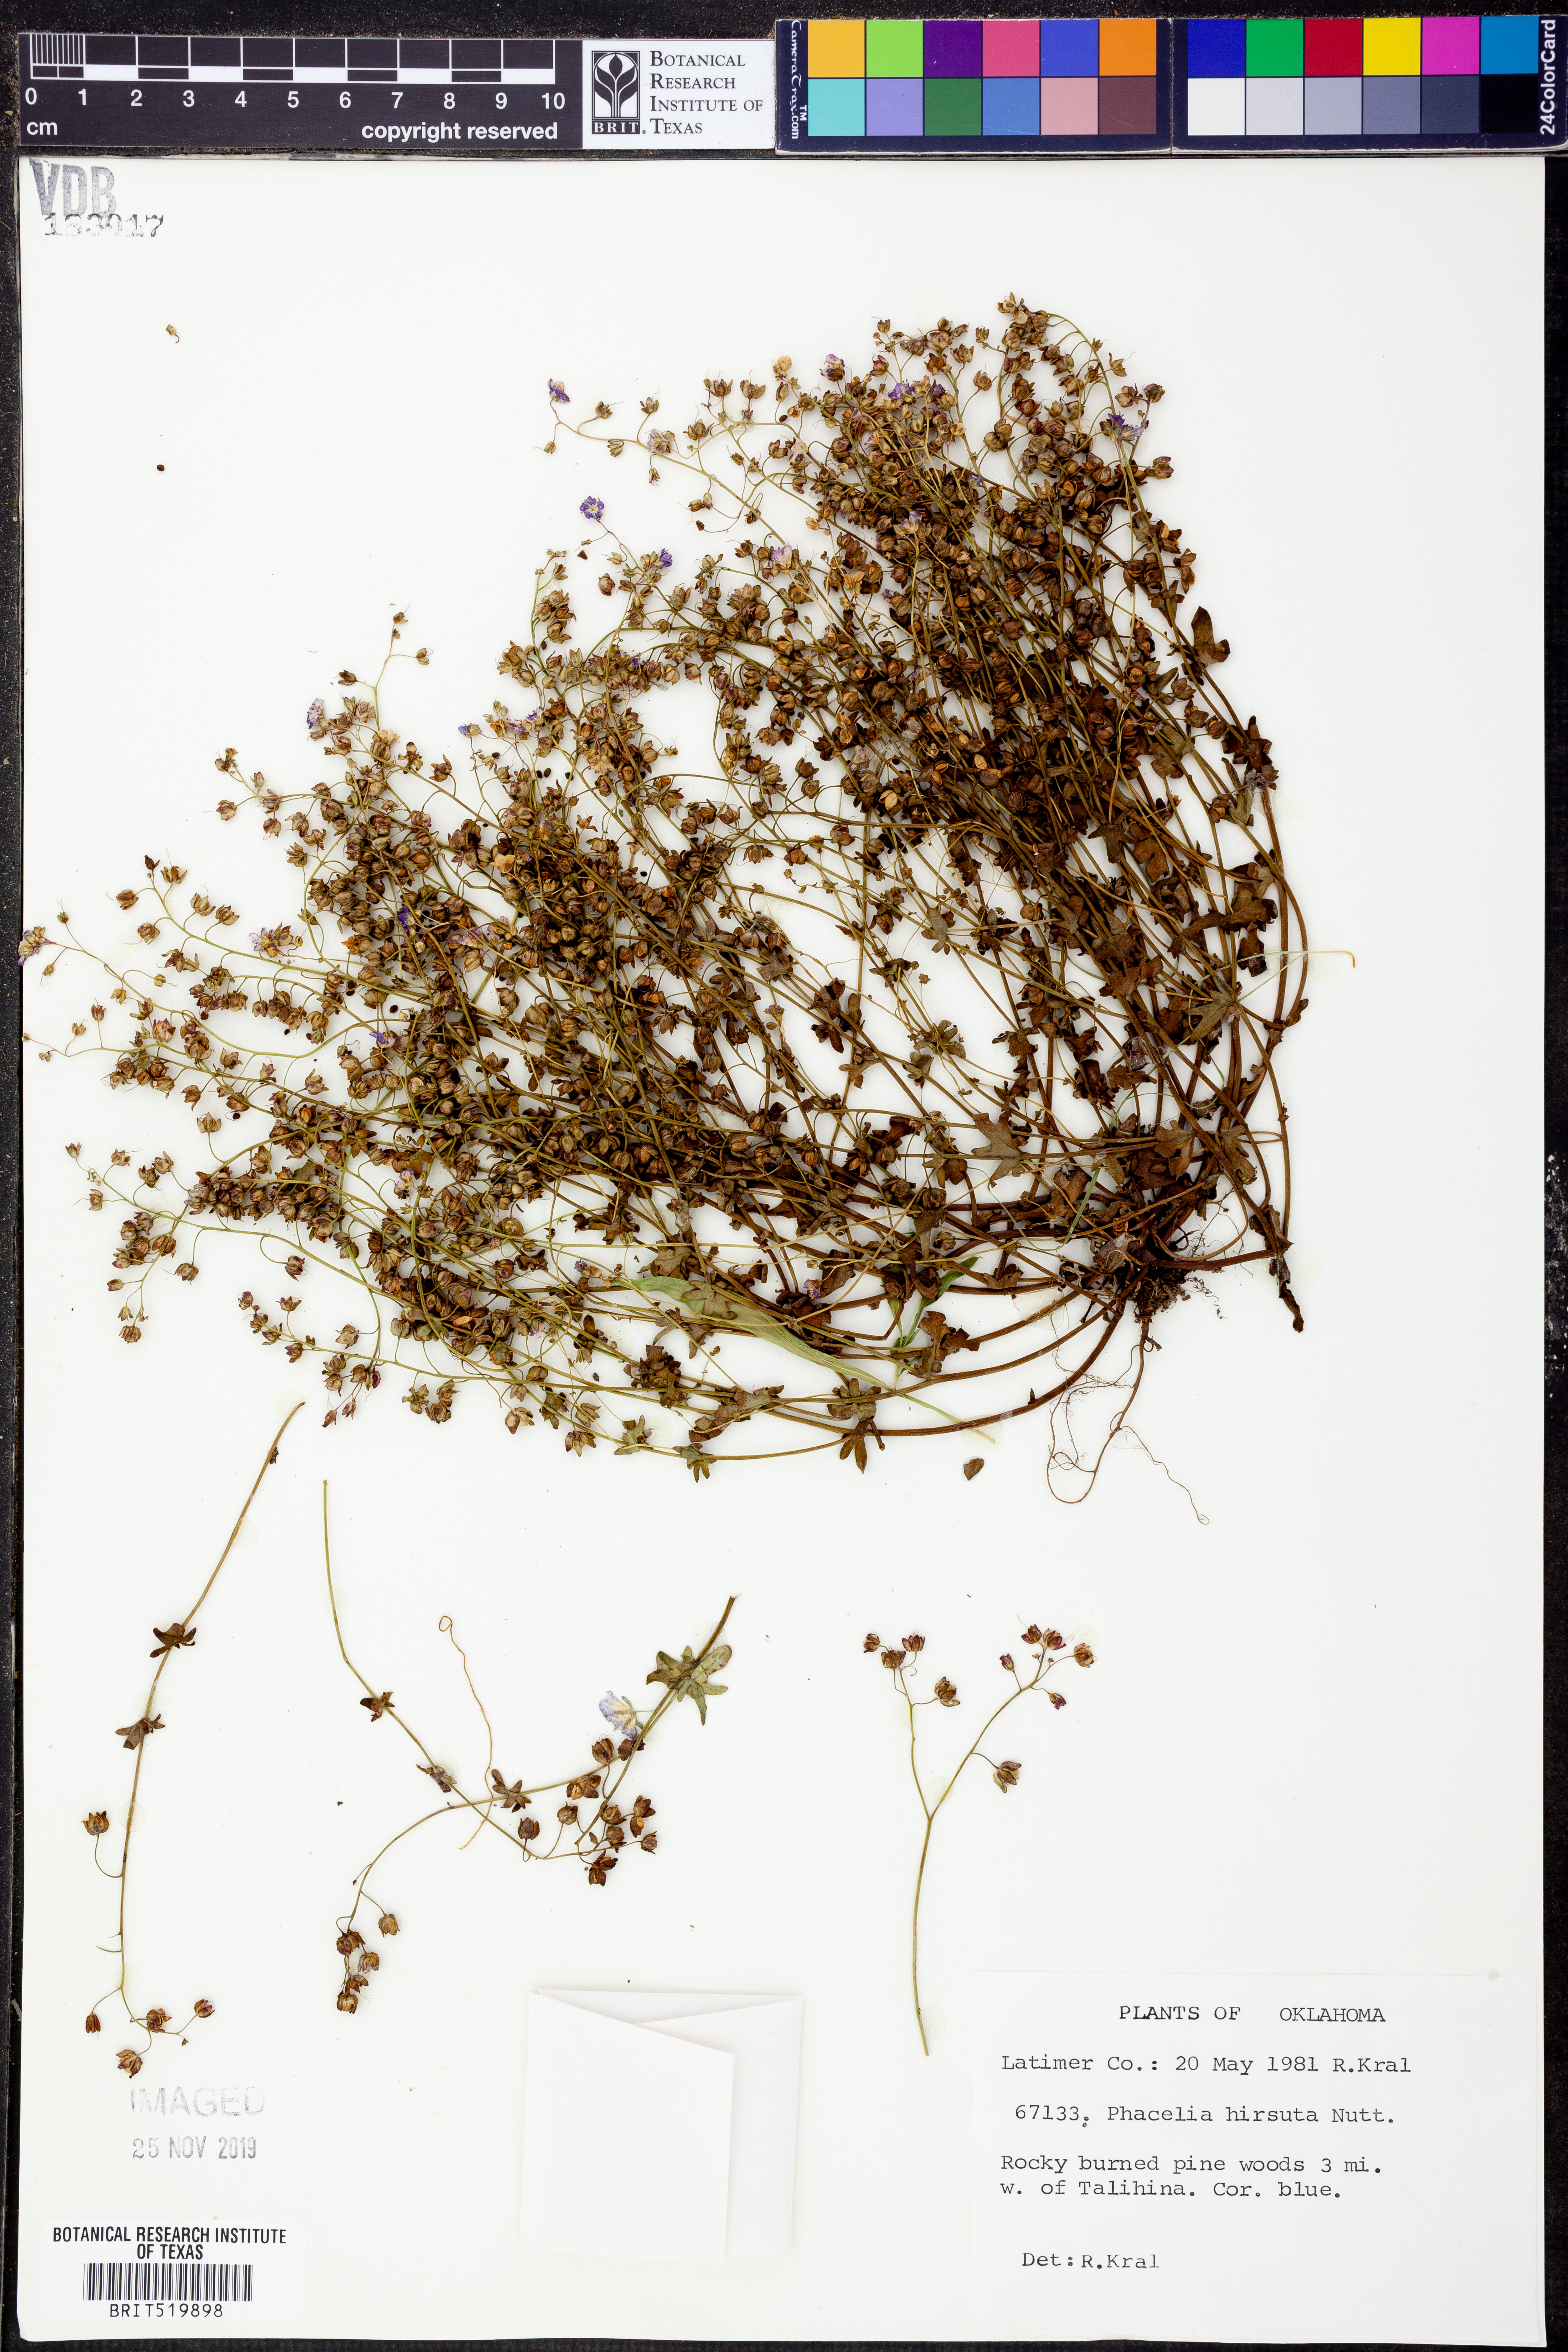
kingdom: Plantae
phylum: Tracheophyta
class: Magnoliopsida
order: Boraginales
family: Hydrophyllaceae
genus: Phacelia
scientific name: Phacelia hirsuta
